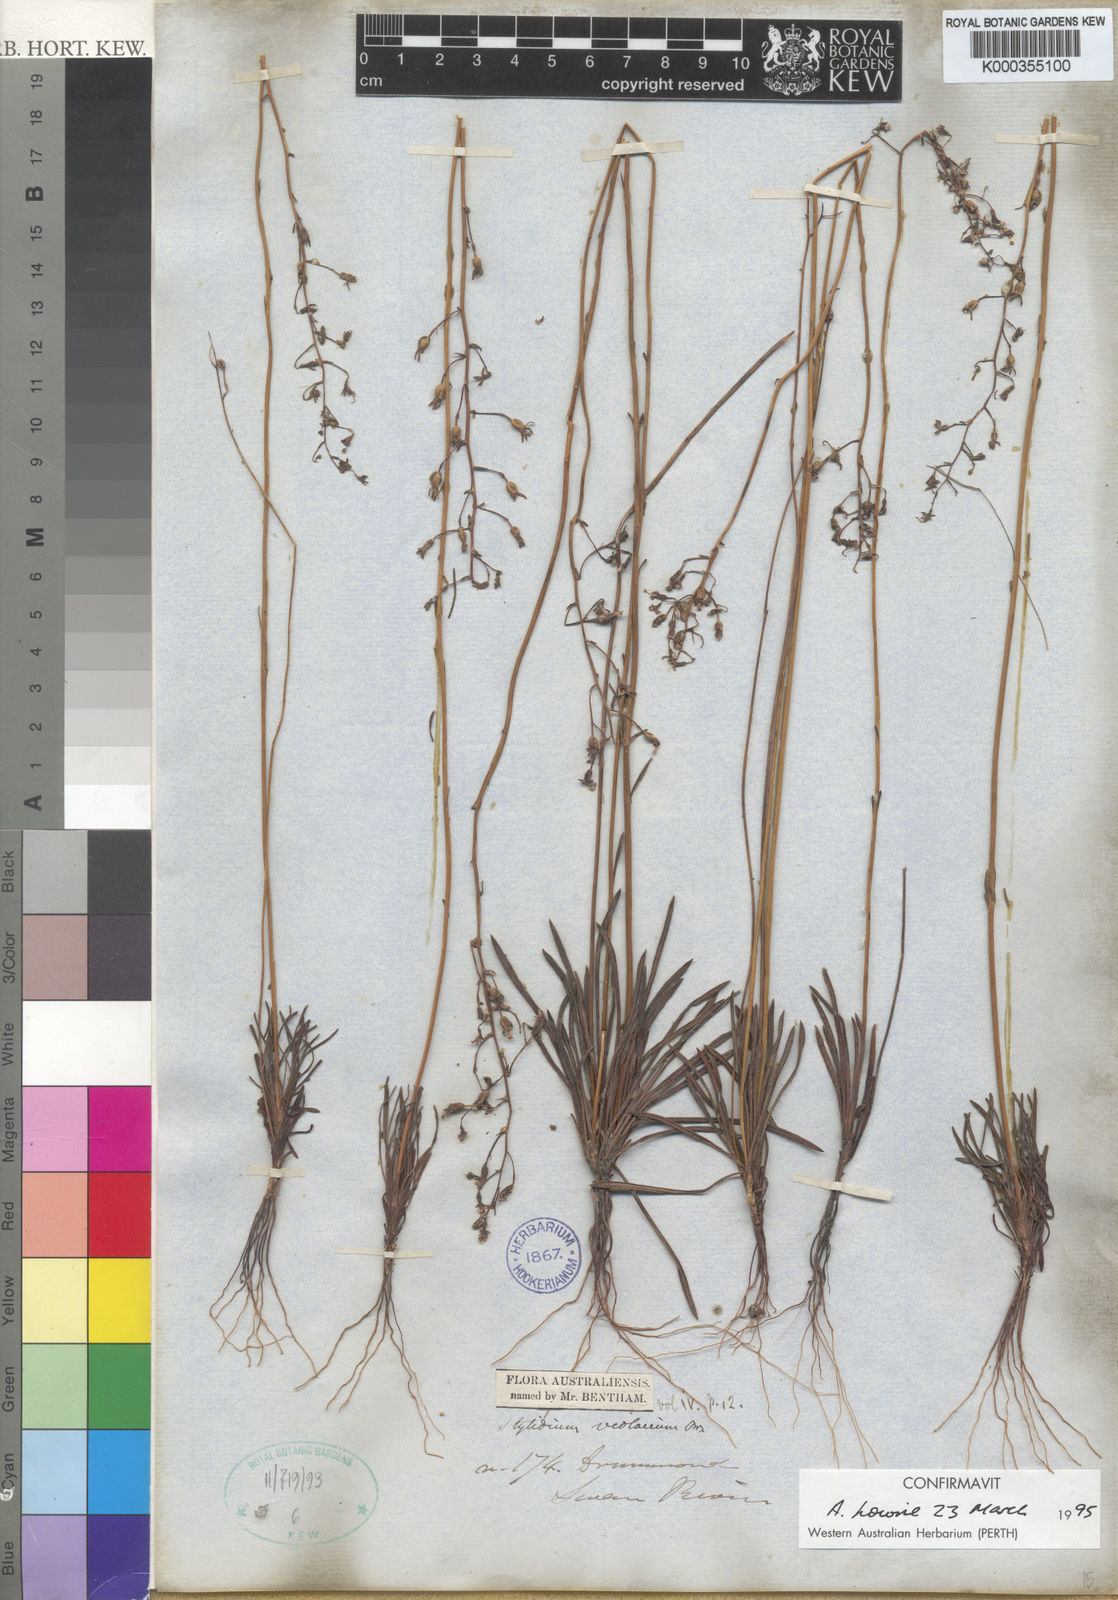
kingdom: Plantae
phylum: Tracheophyta
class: Magnoliopsida
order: Asterales
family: Stylidiaceae
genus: Stylidium
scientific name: Stylidium violaceum
